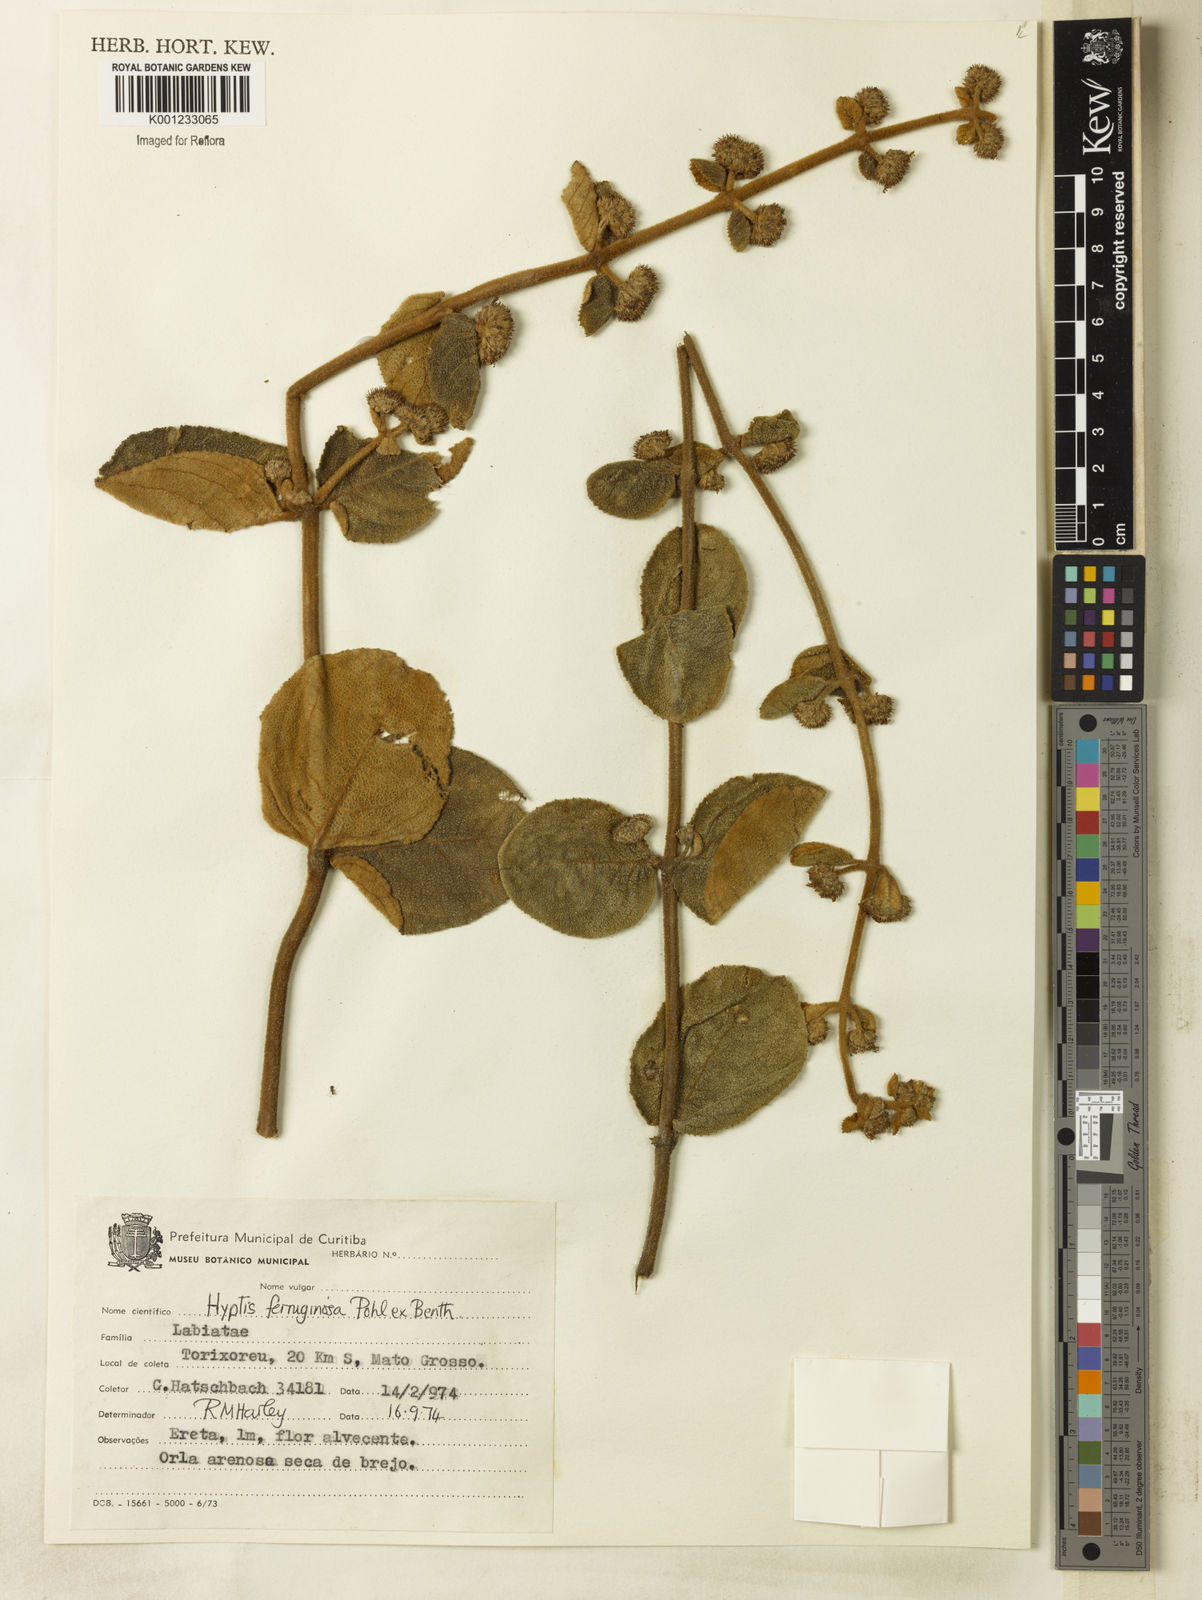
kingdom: Plantae
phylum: Tracheophyta
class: Magnoliopsida
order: Lamiales
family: Lamiaceae
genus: Hyptis
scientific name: Hyptis ferruginosa
